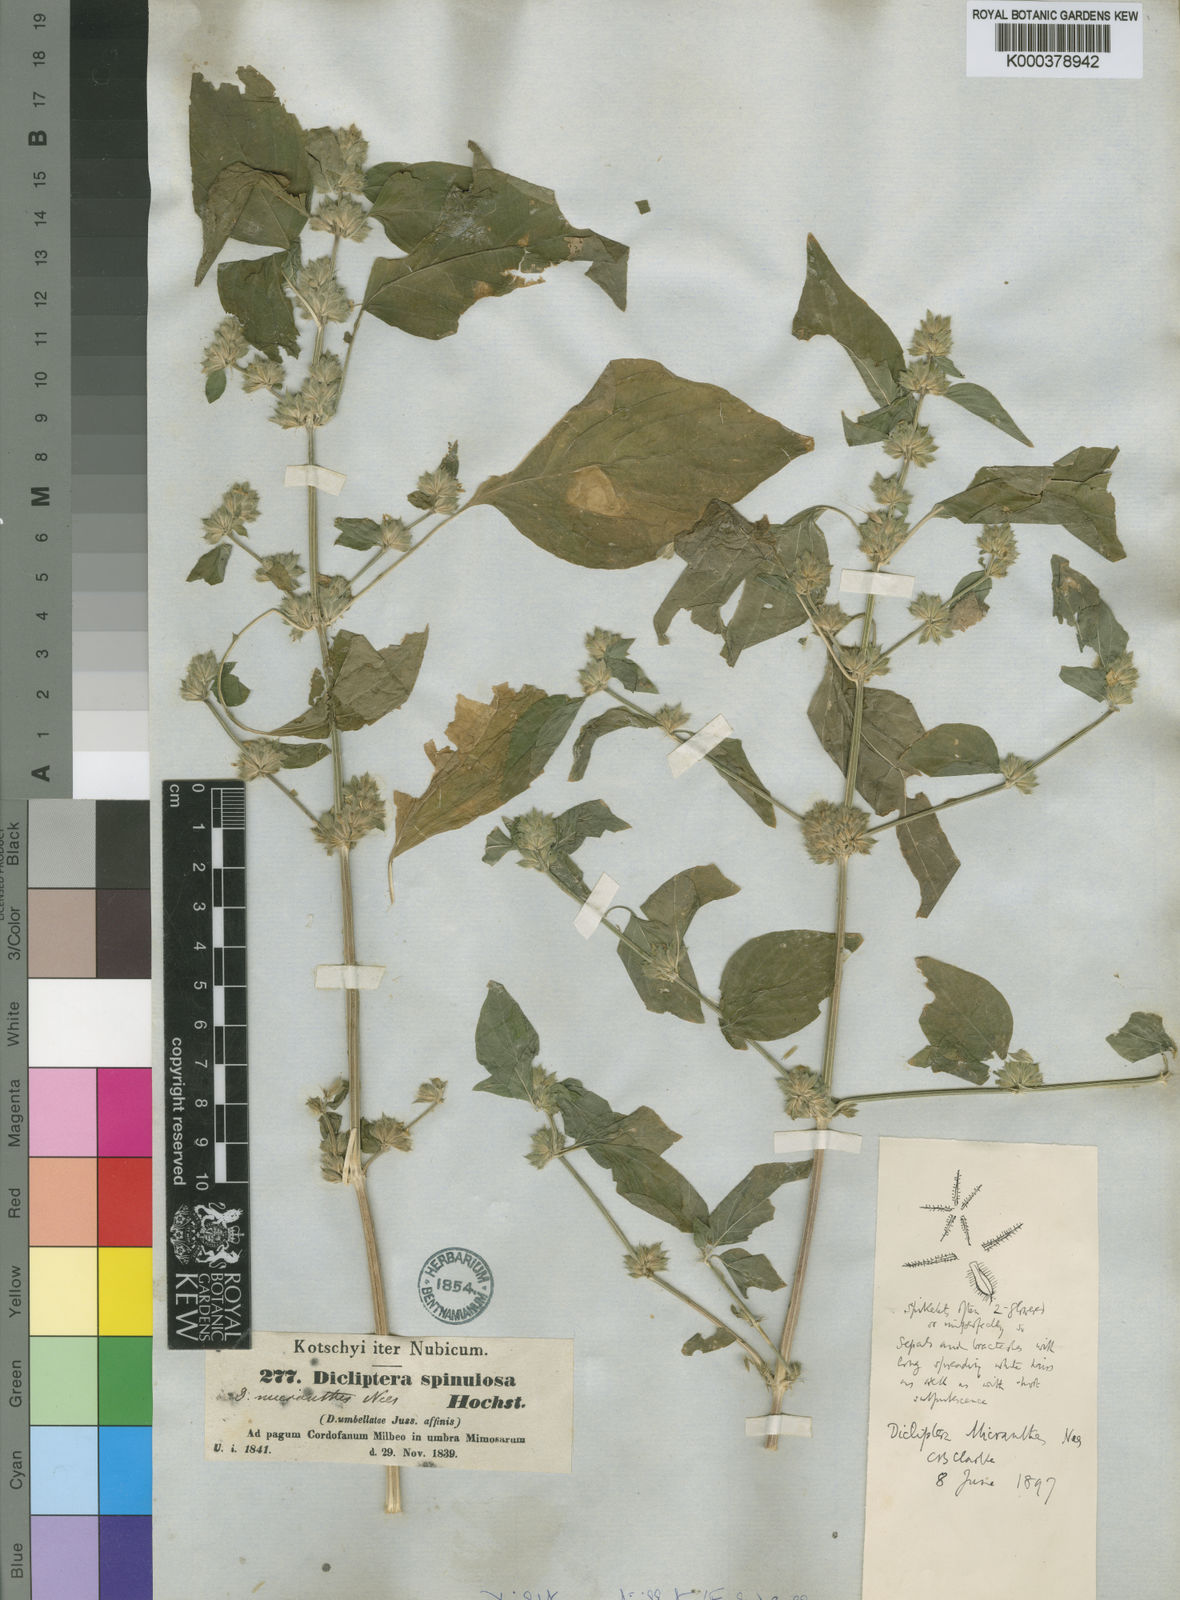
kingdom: Plantae
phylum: Tracheophyta
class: Magnoliopsida
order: Lamiales
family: Acanthaceae
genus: Dicliptera
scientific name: Dicliptera verticillata
